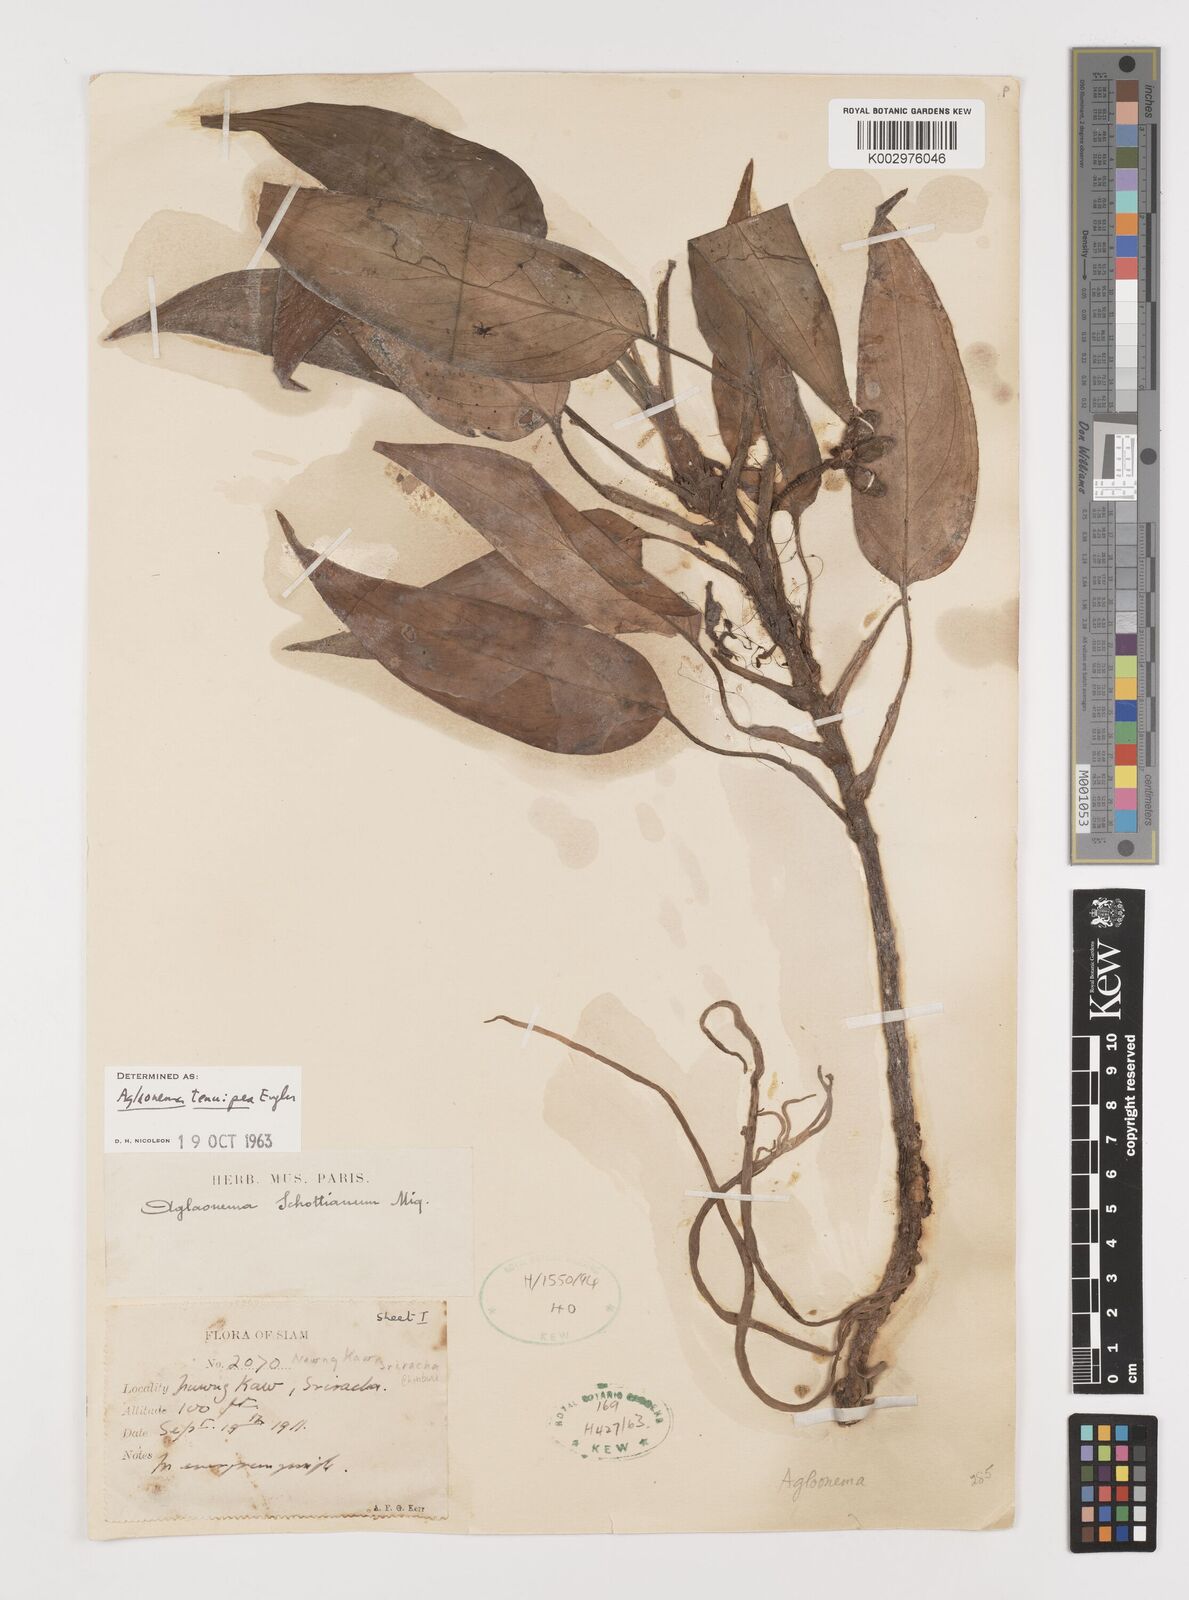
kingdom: Plantae
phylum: Tracheophyta
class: Liliopsida
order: Alismatales
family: Araceae
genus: Aglaonema
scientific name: Aglaonema simplex
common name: Malayan-sword
